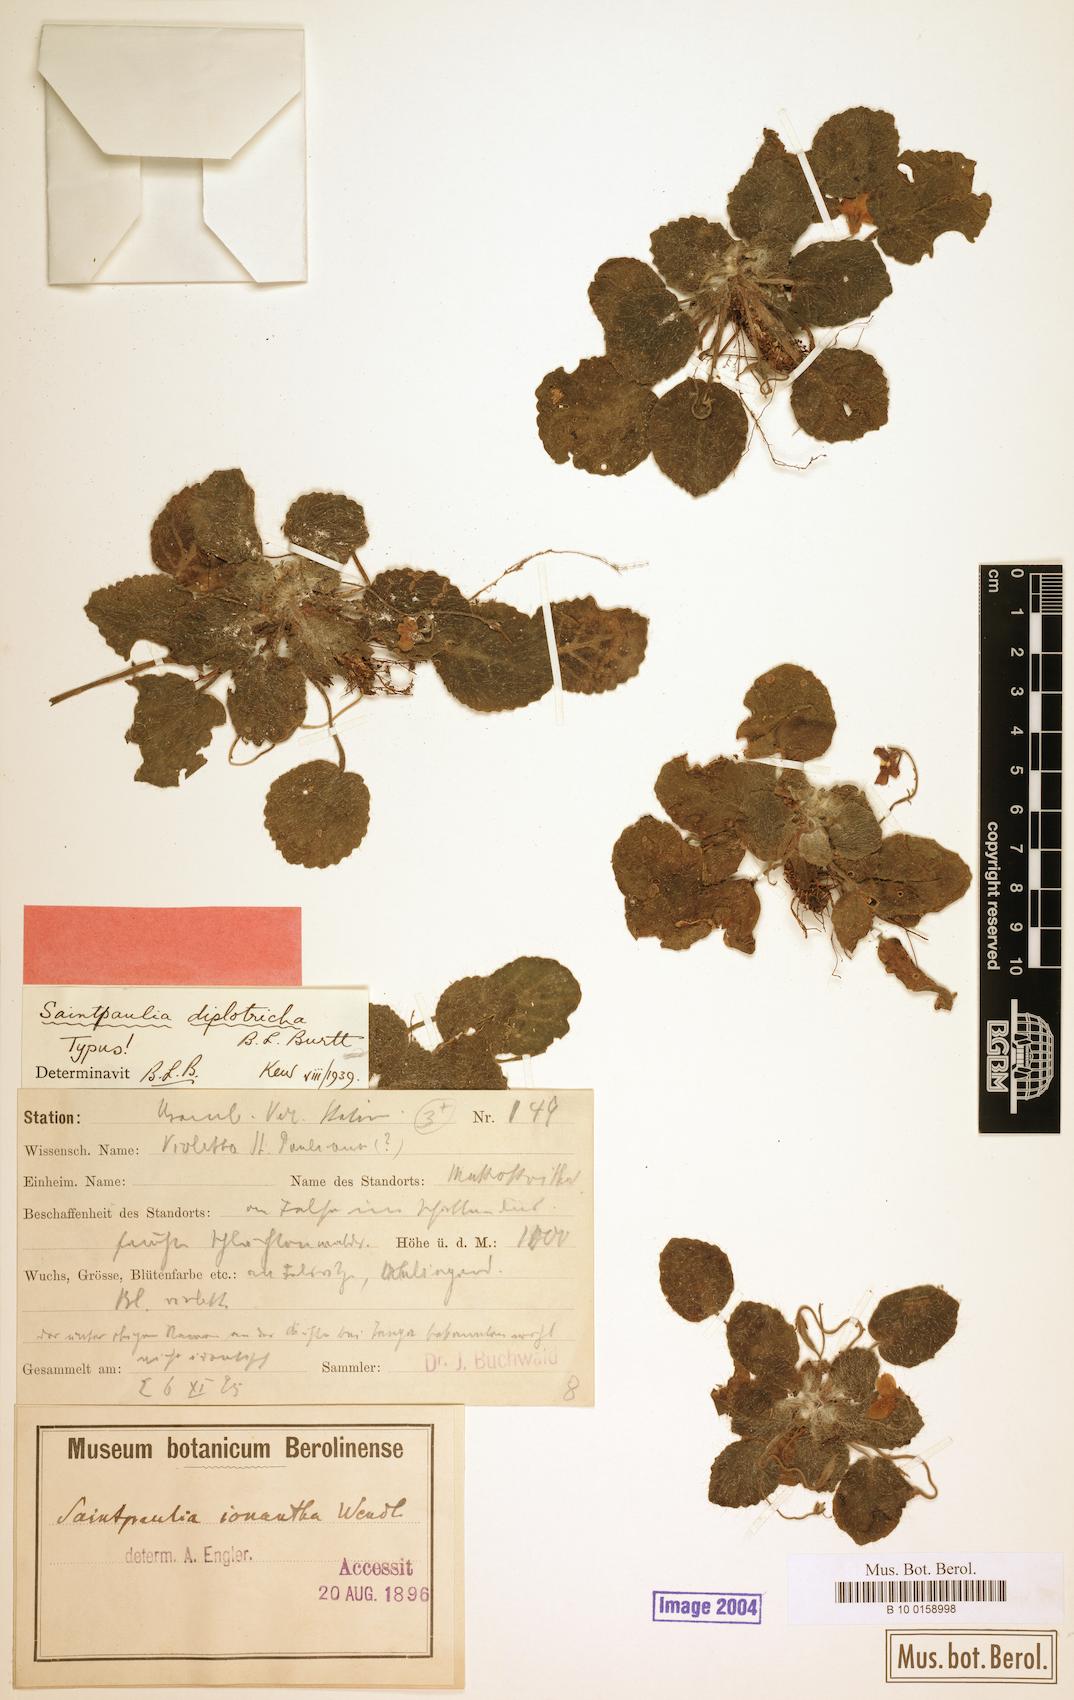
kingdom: Plantae
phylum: Tracheophyta
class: Magnoliopsida
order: Lamiales
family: Gesneriaceae
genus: Streptocarpus
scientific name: Streptocarpus ionanthus
